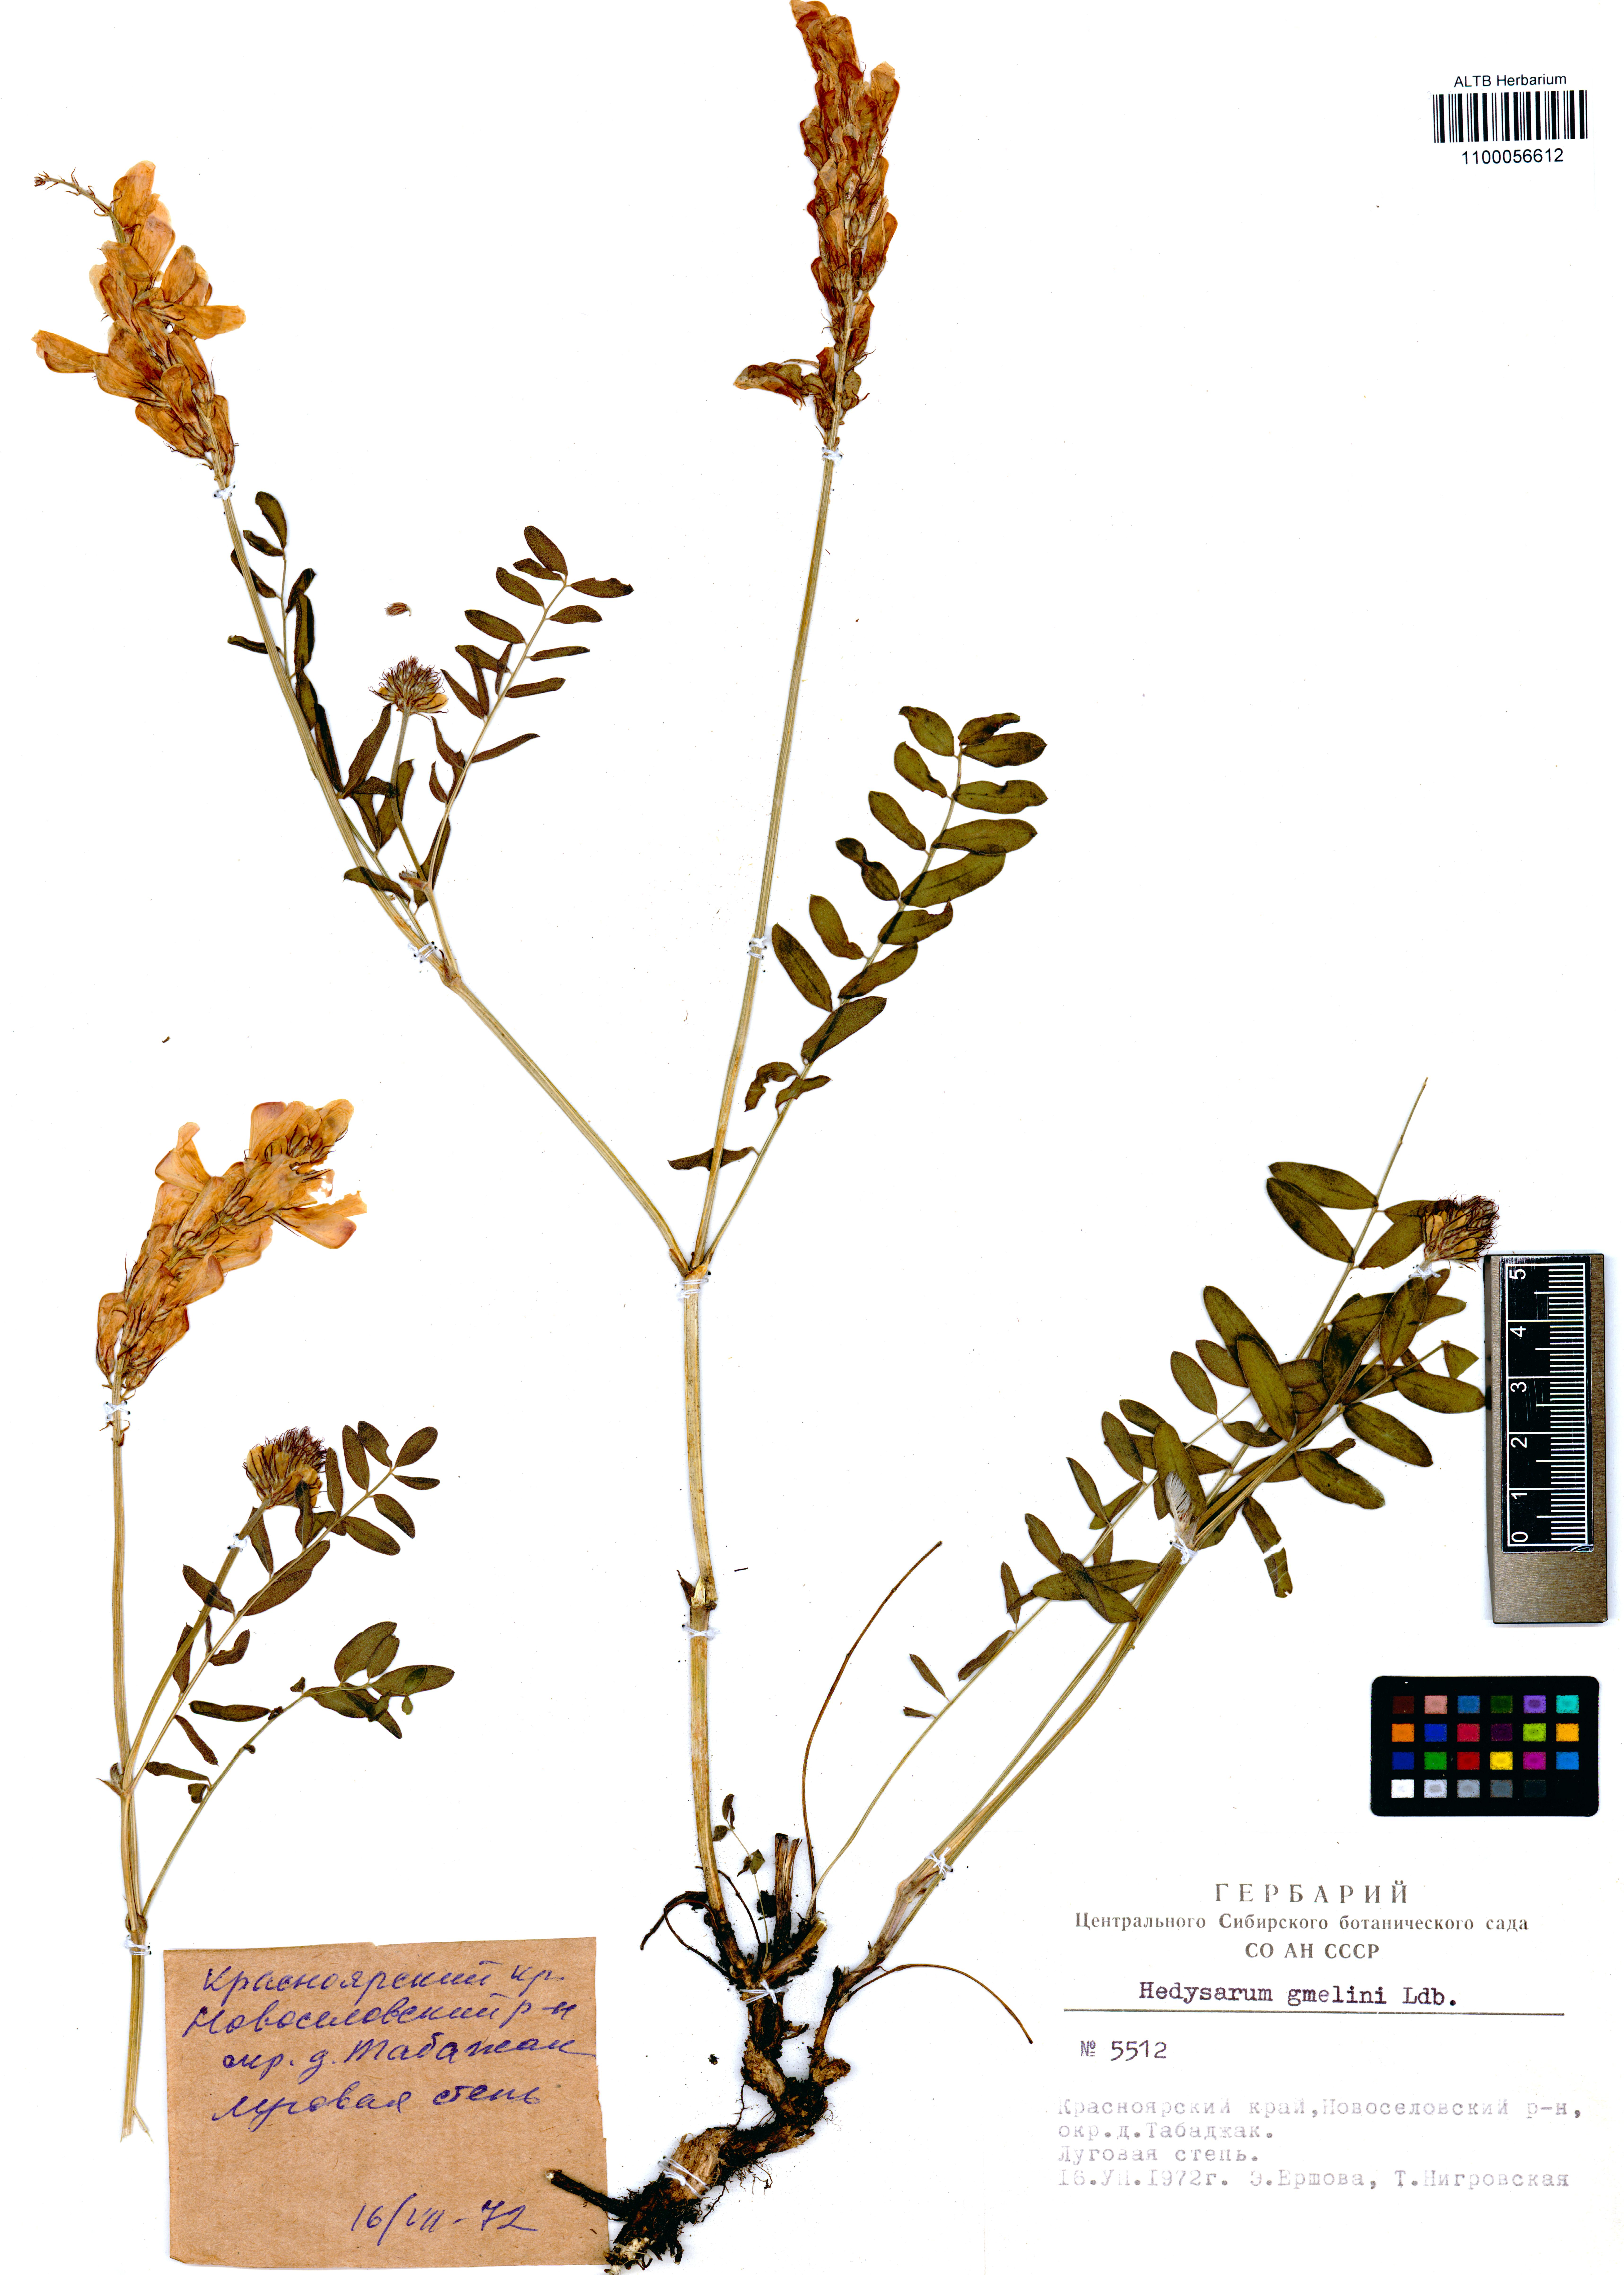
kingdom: Plantae
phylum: Tracheophyta
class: Magnoliopsida
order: Fabales
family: Fabaceae
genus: Hedysarum
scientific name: Hedysarum gmelinii
